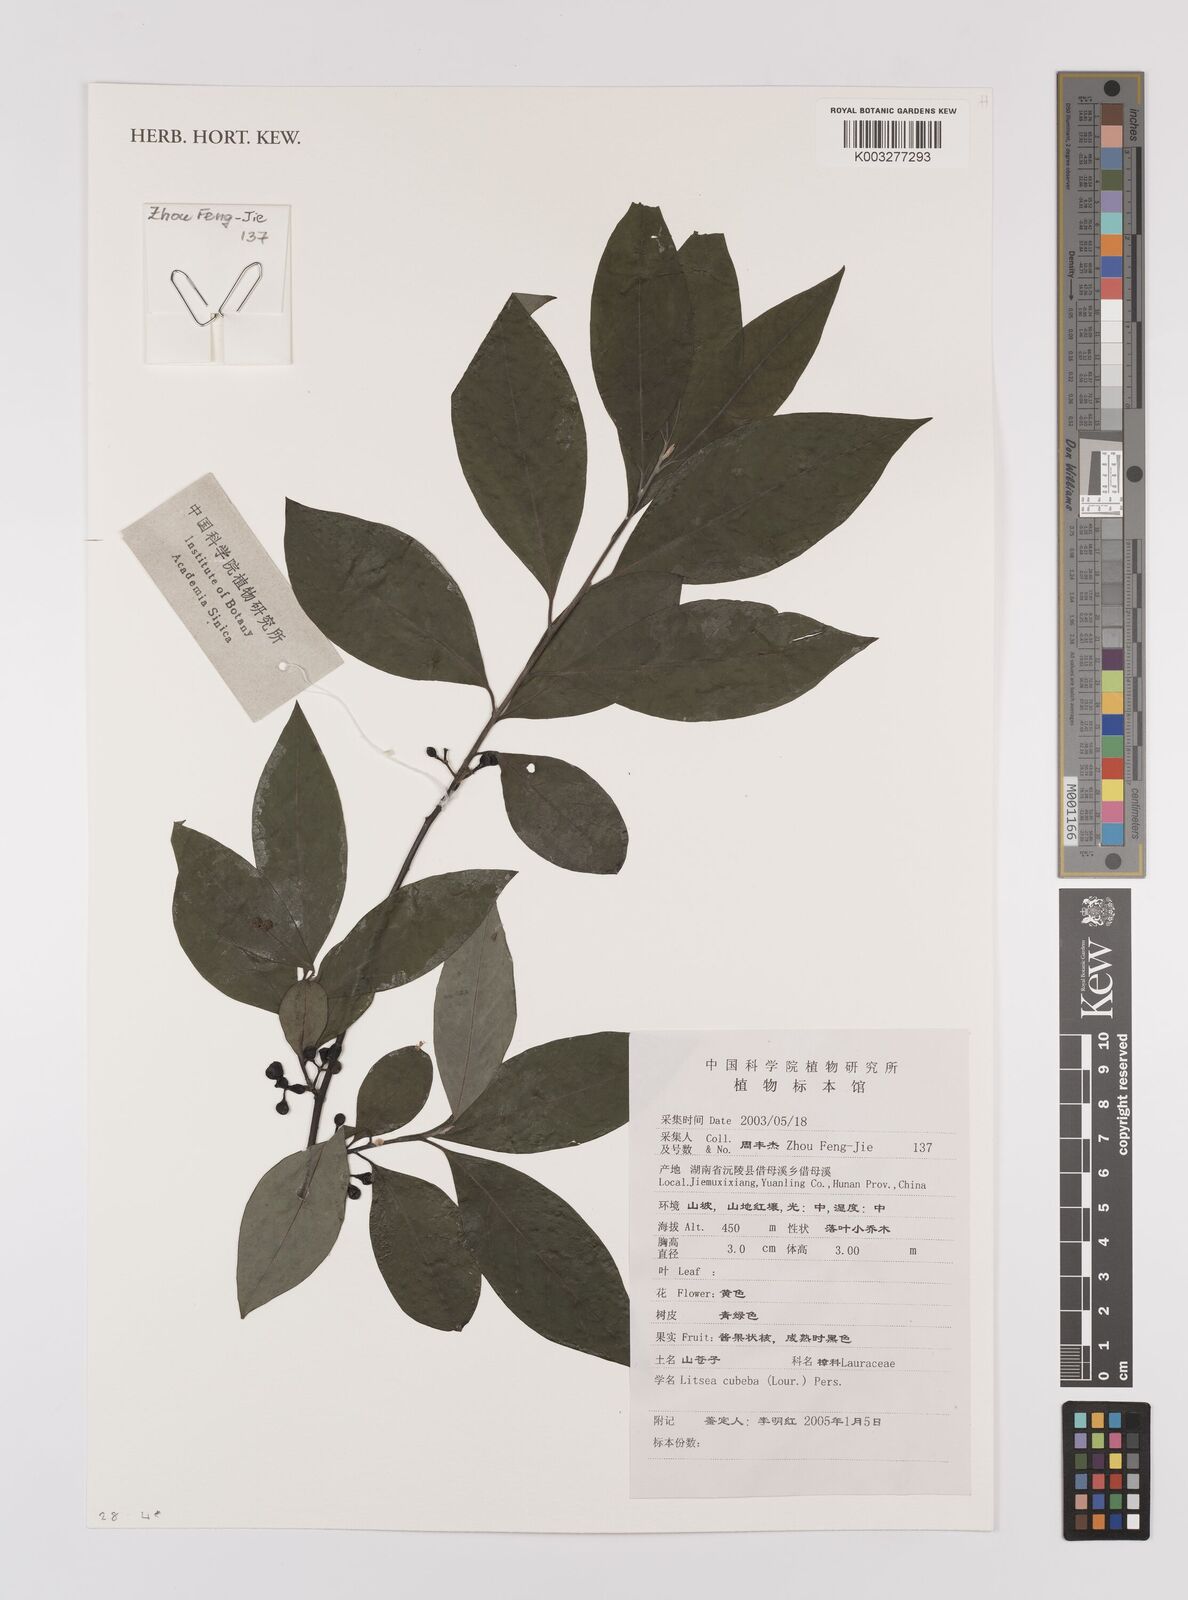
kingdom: Plantae
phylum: Tracheophyta
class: Magnoliopsida
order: Laurales
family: Lauraceae
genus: Litsea
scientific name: Litsea cubeba
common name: Mountain-pepper
